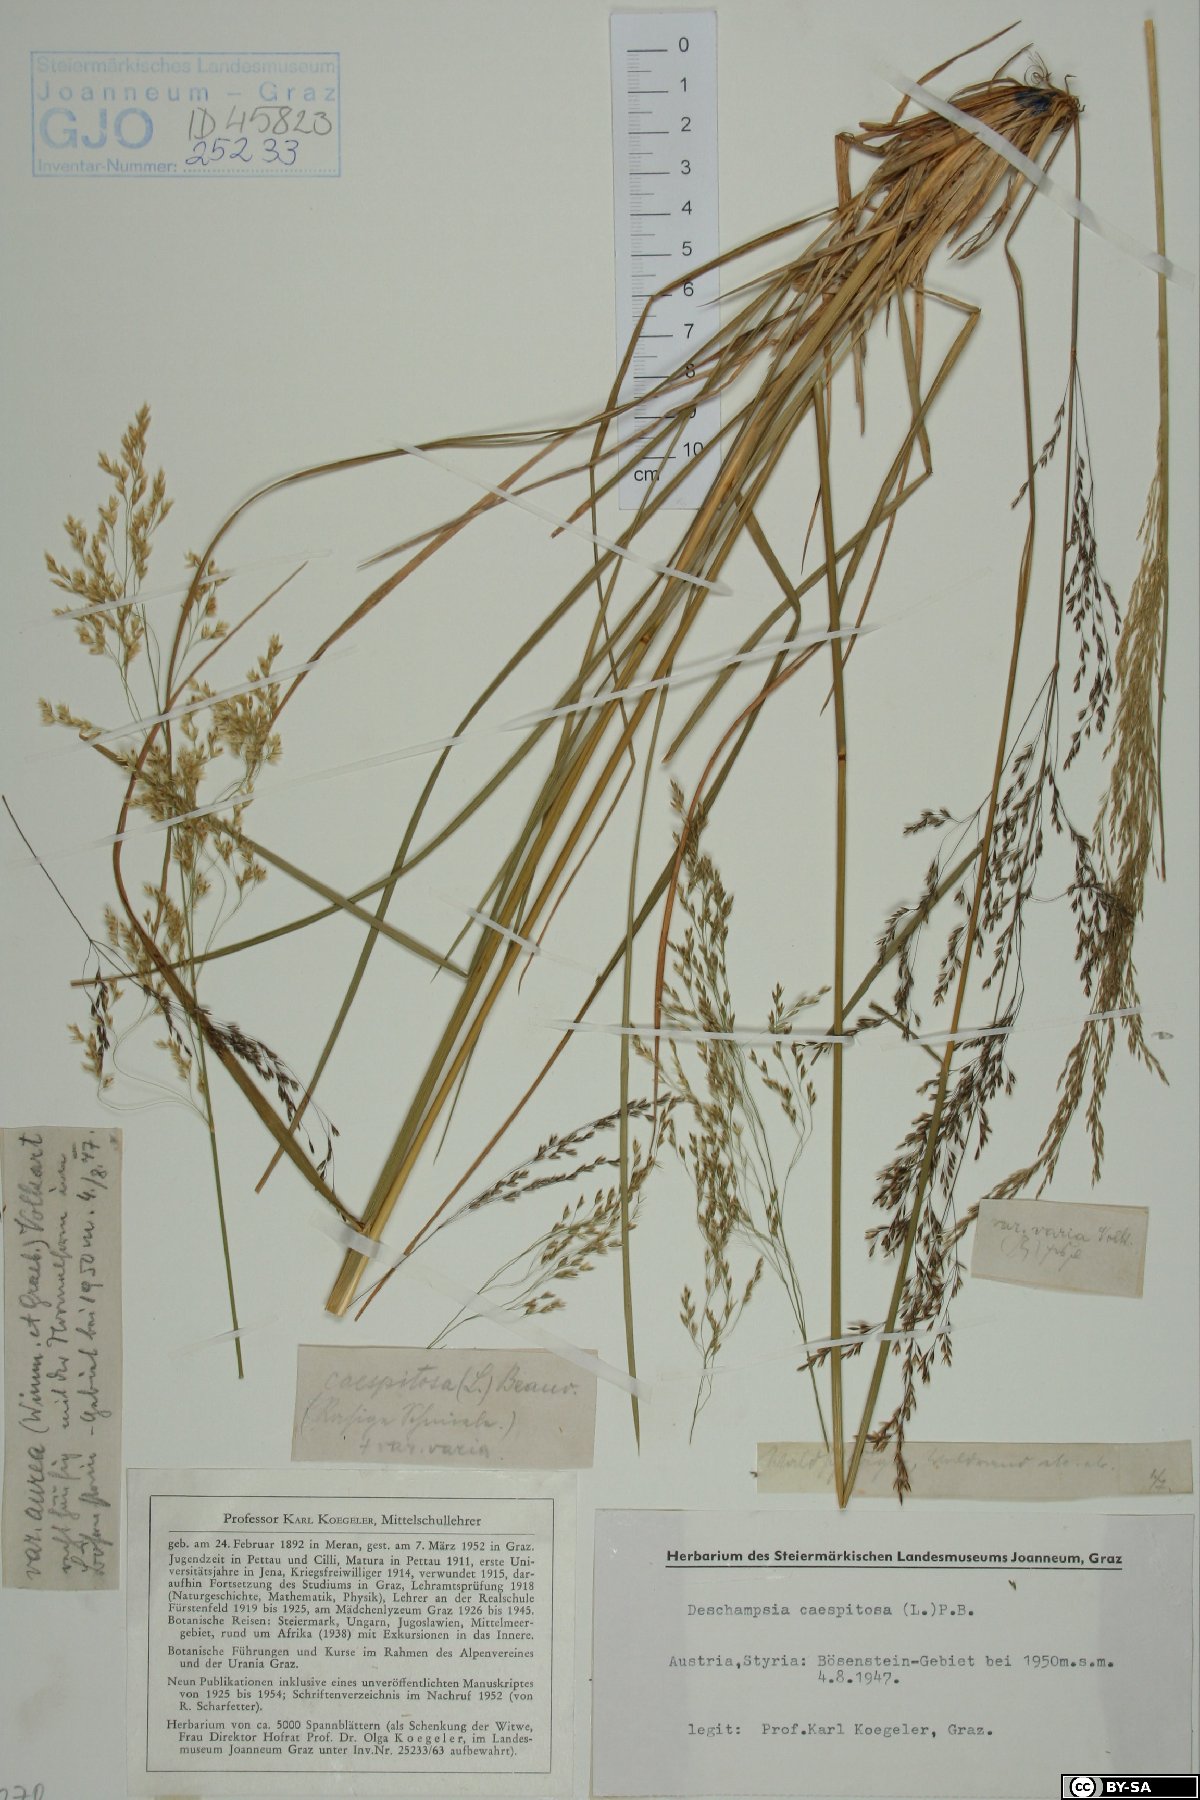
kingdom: Plantae
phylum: Tracheophyta
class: Liliopsida
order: Poales
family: Poaceae
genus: Deschampsia
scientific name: Deschampsia cespitosa
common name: Tufted hair-grass
